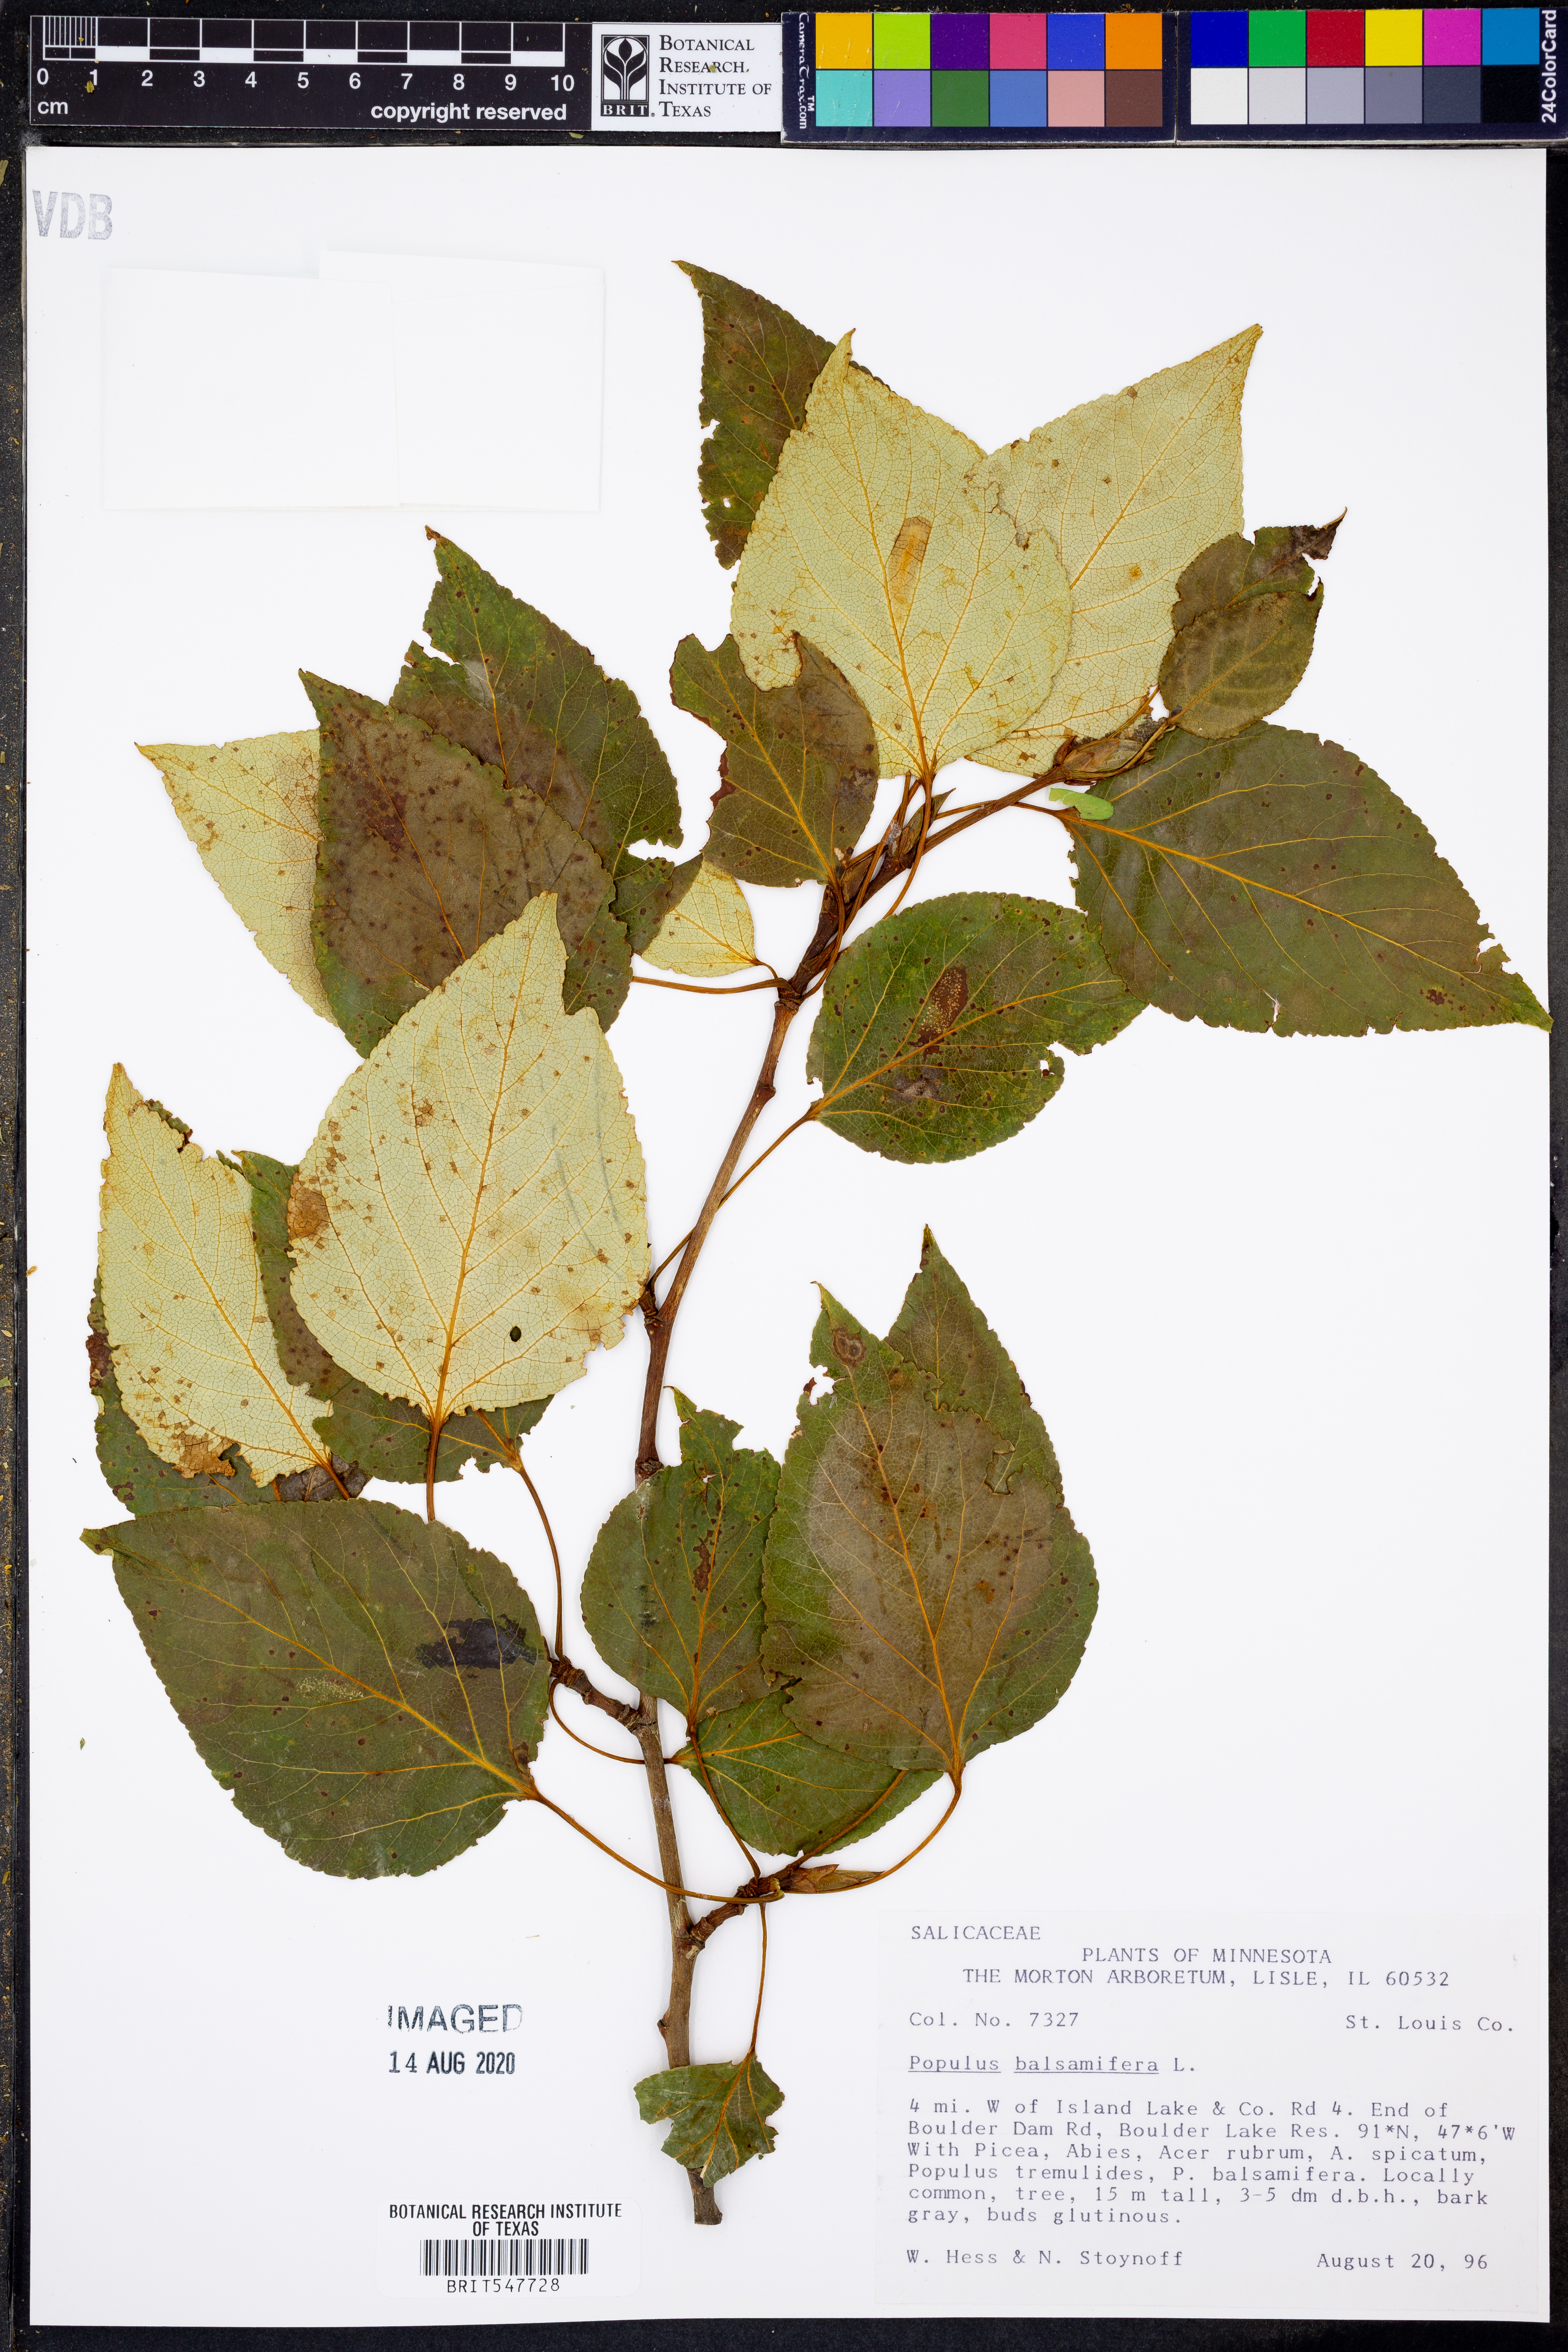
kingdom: Plantae
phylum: Tracheophyta
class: Magnoliopsida
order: Malpighiales
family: Salicaceae
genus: Populus
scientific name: Populus balsamifera
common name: Balsam poplar
